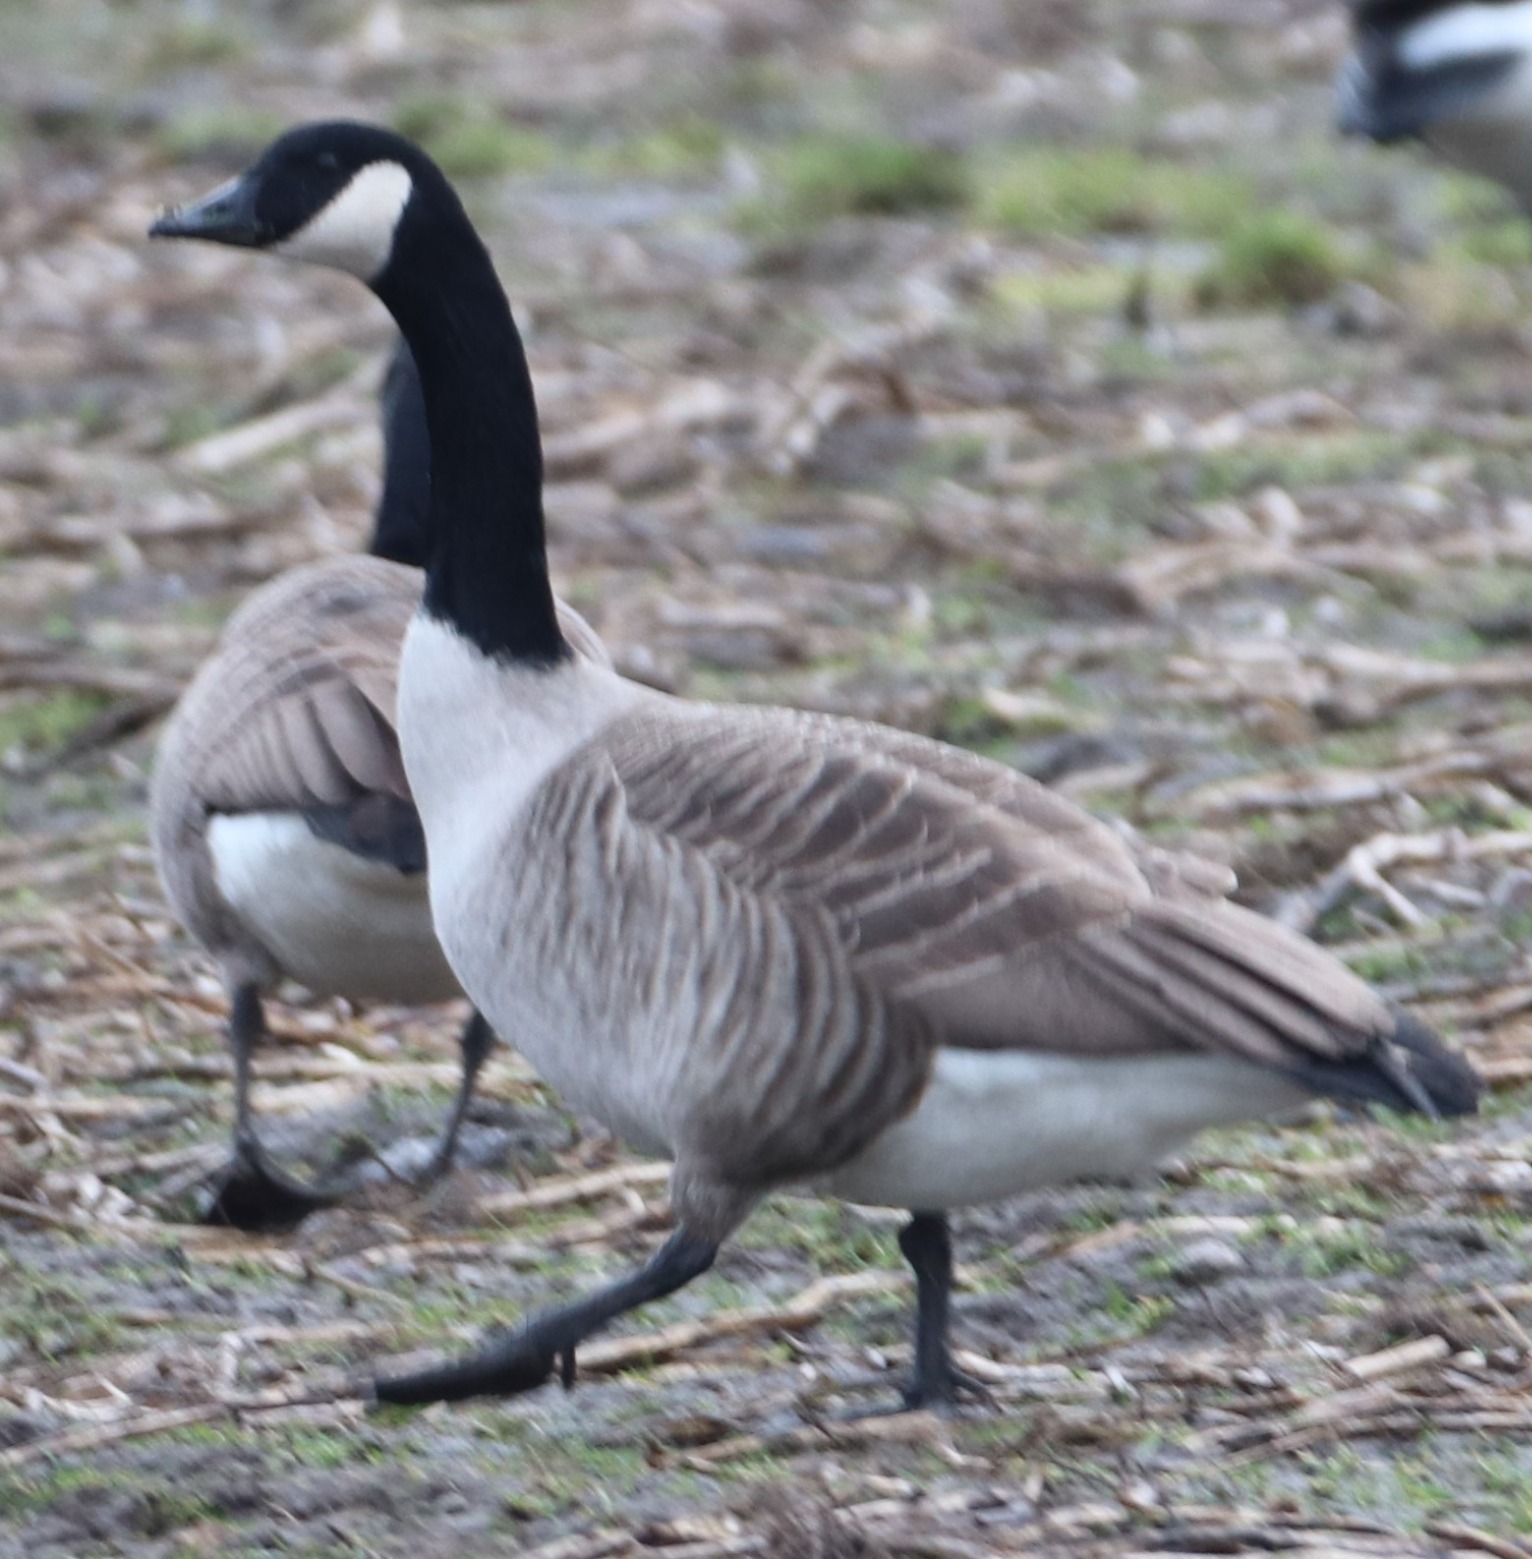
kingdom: Animalia
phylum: Chordata
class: Aves
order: Anseriformes
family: Anatidae
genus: Branta
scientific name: Branta canadensis
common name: Canadagås
